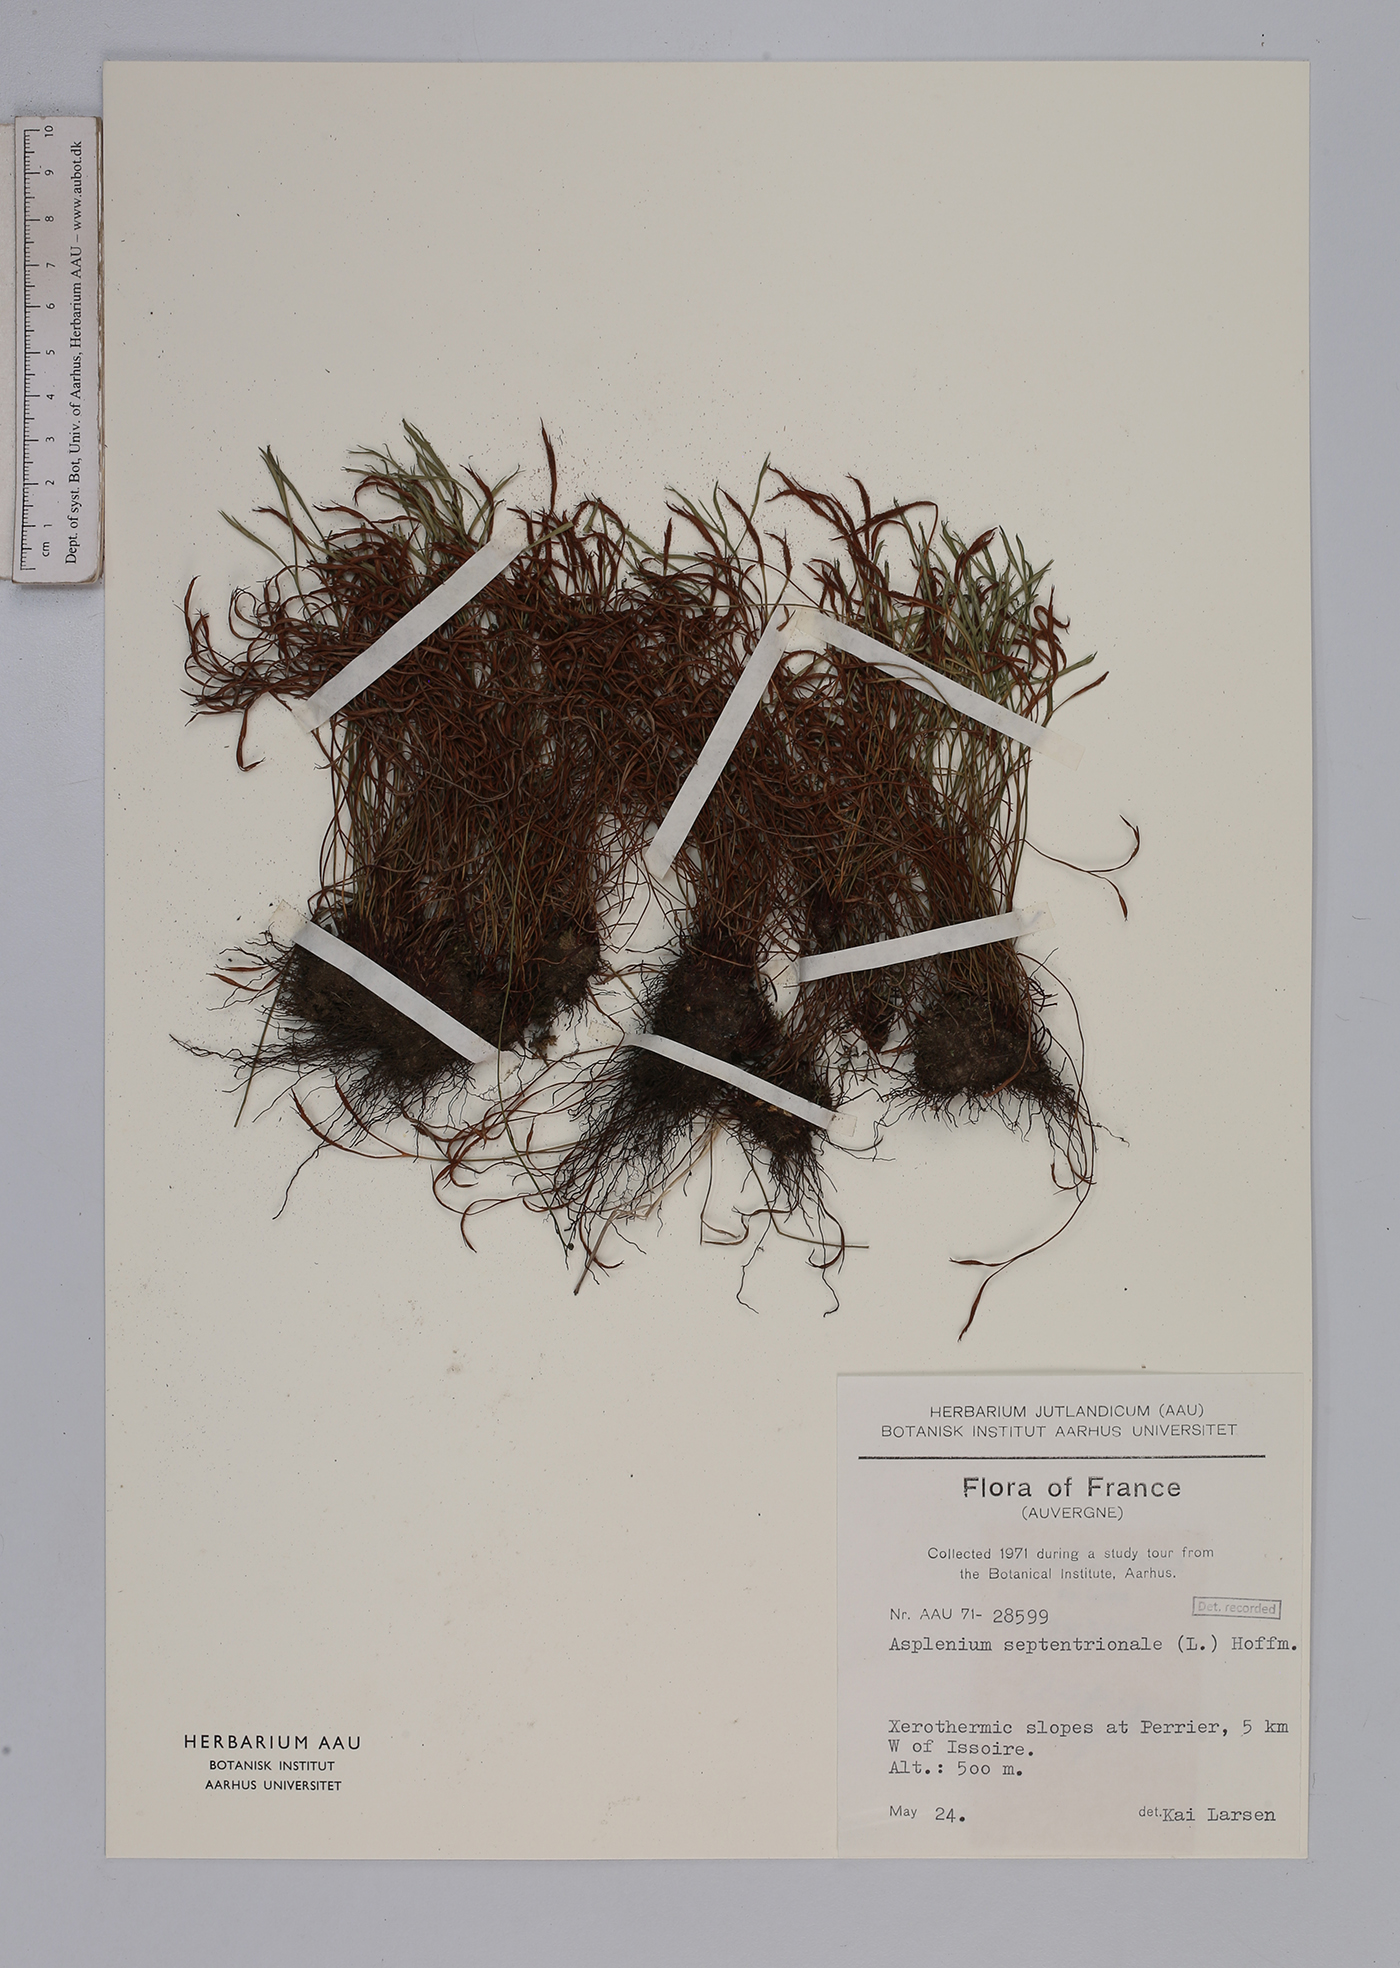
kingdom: Plantae
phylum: Tracheophyta
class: Polypodiopsida
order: Polypodiales
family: Aspleniaceae
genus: Asplenium
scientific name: Asplenium septentrionale
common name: Forked spleenwort
